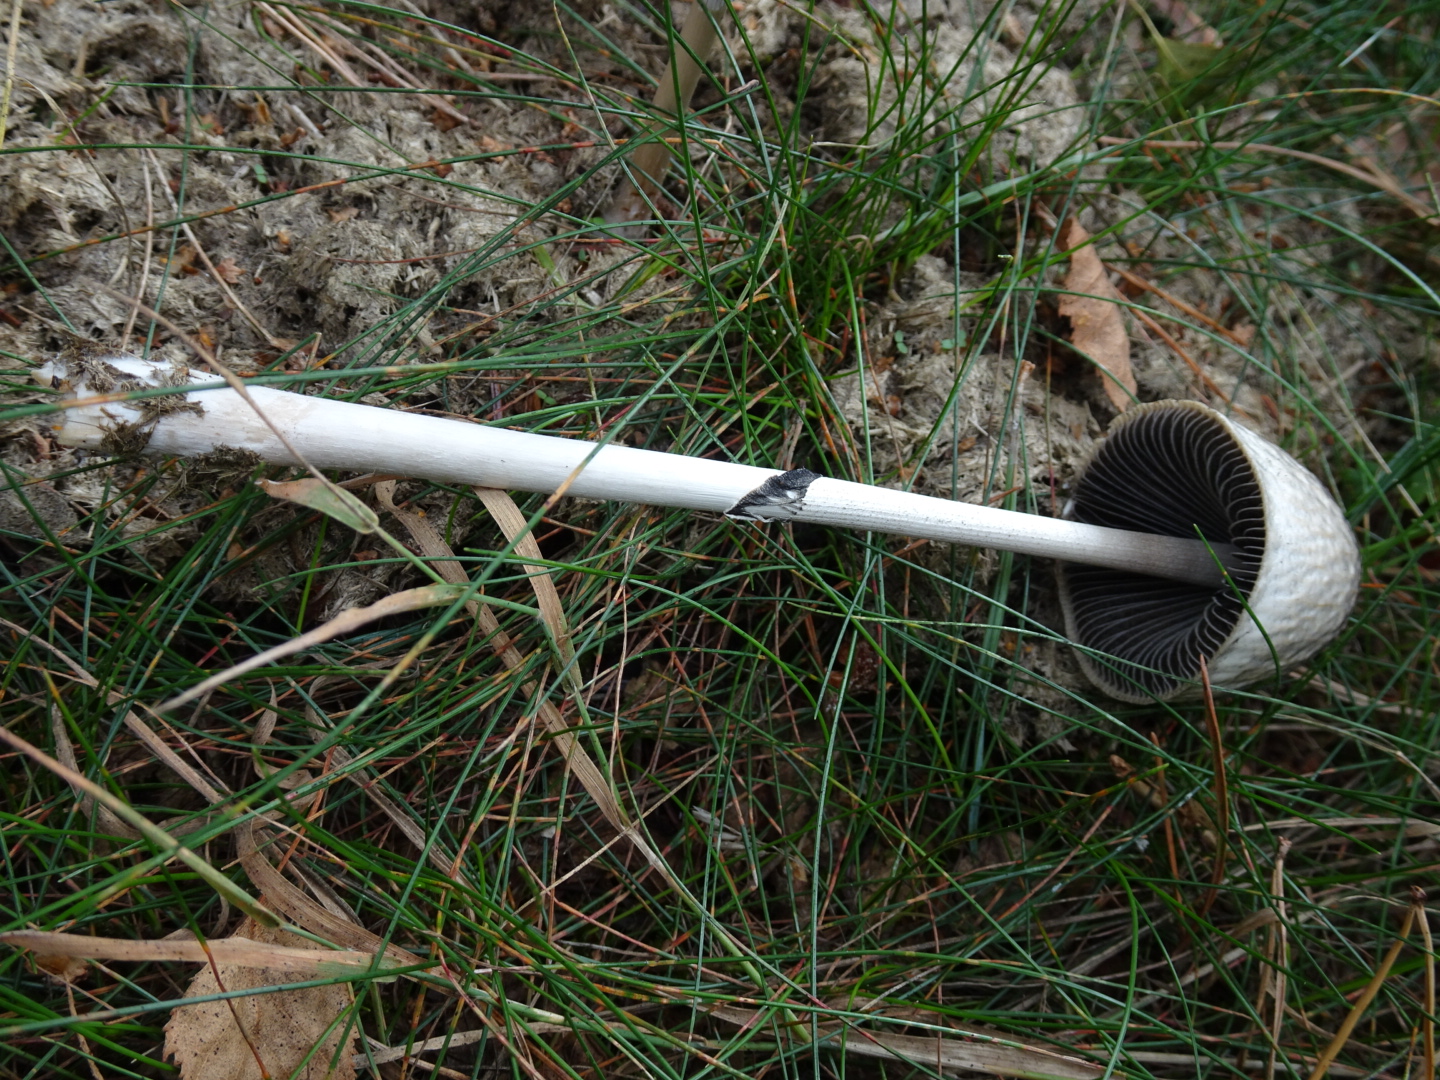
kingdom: Fungi
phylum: Basidiomycota
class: Agaricomycetes
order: Agaricales
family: Bolbitiaceae
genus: Panaeolus
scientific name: Panaeolus semiovatus
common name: ring-glanshat
